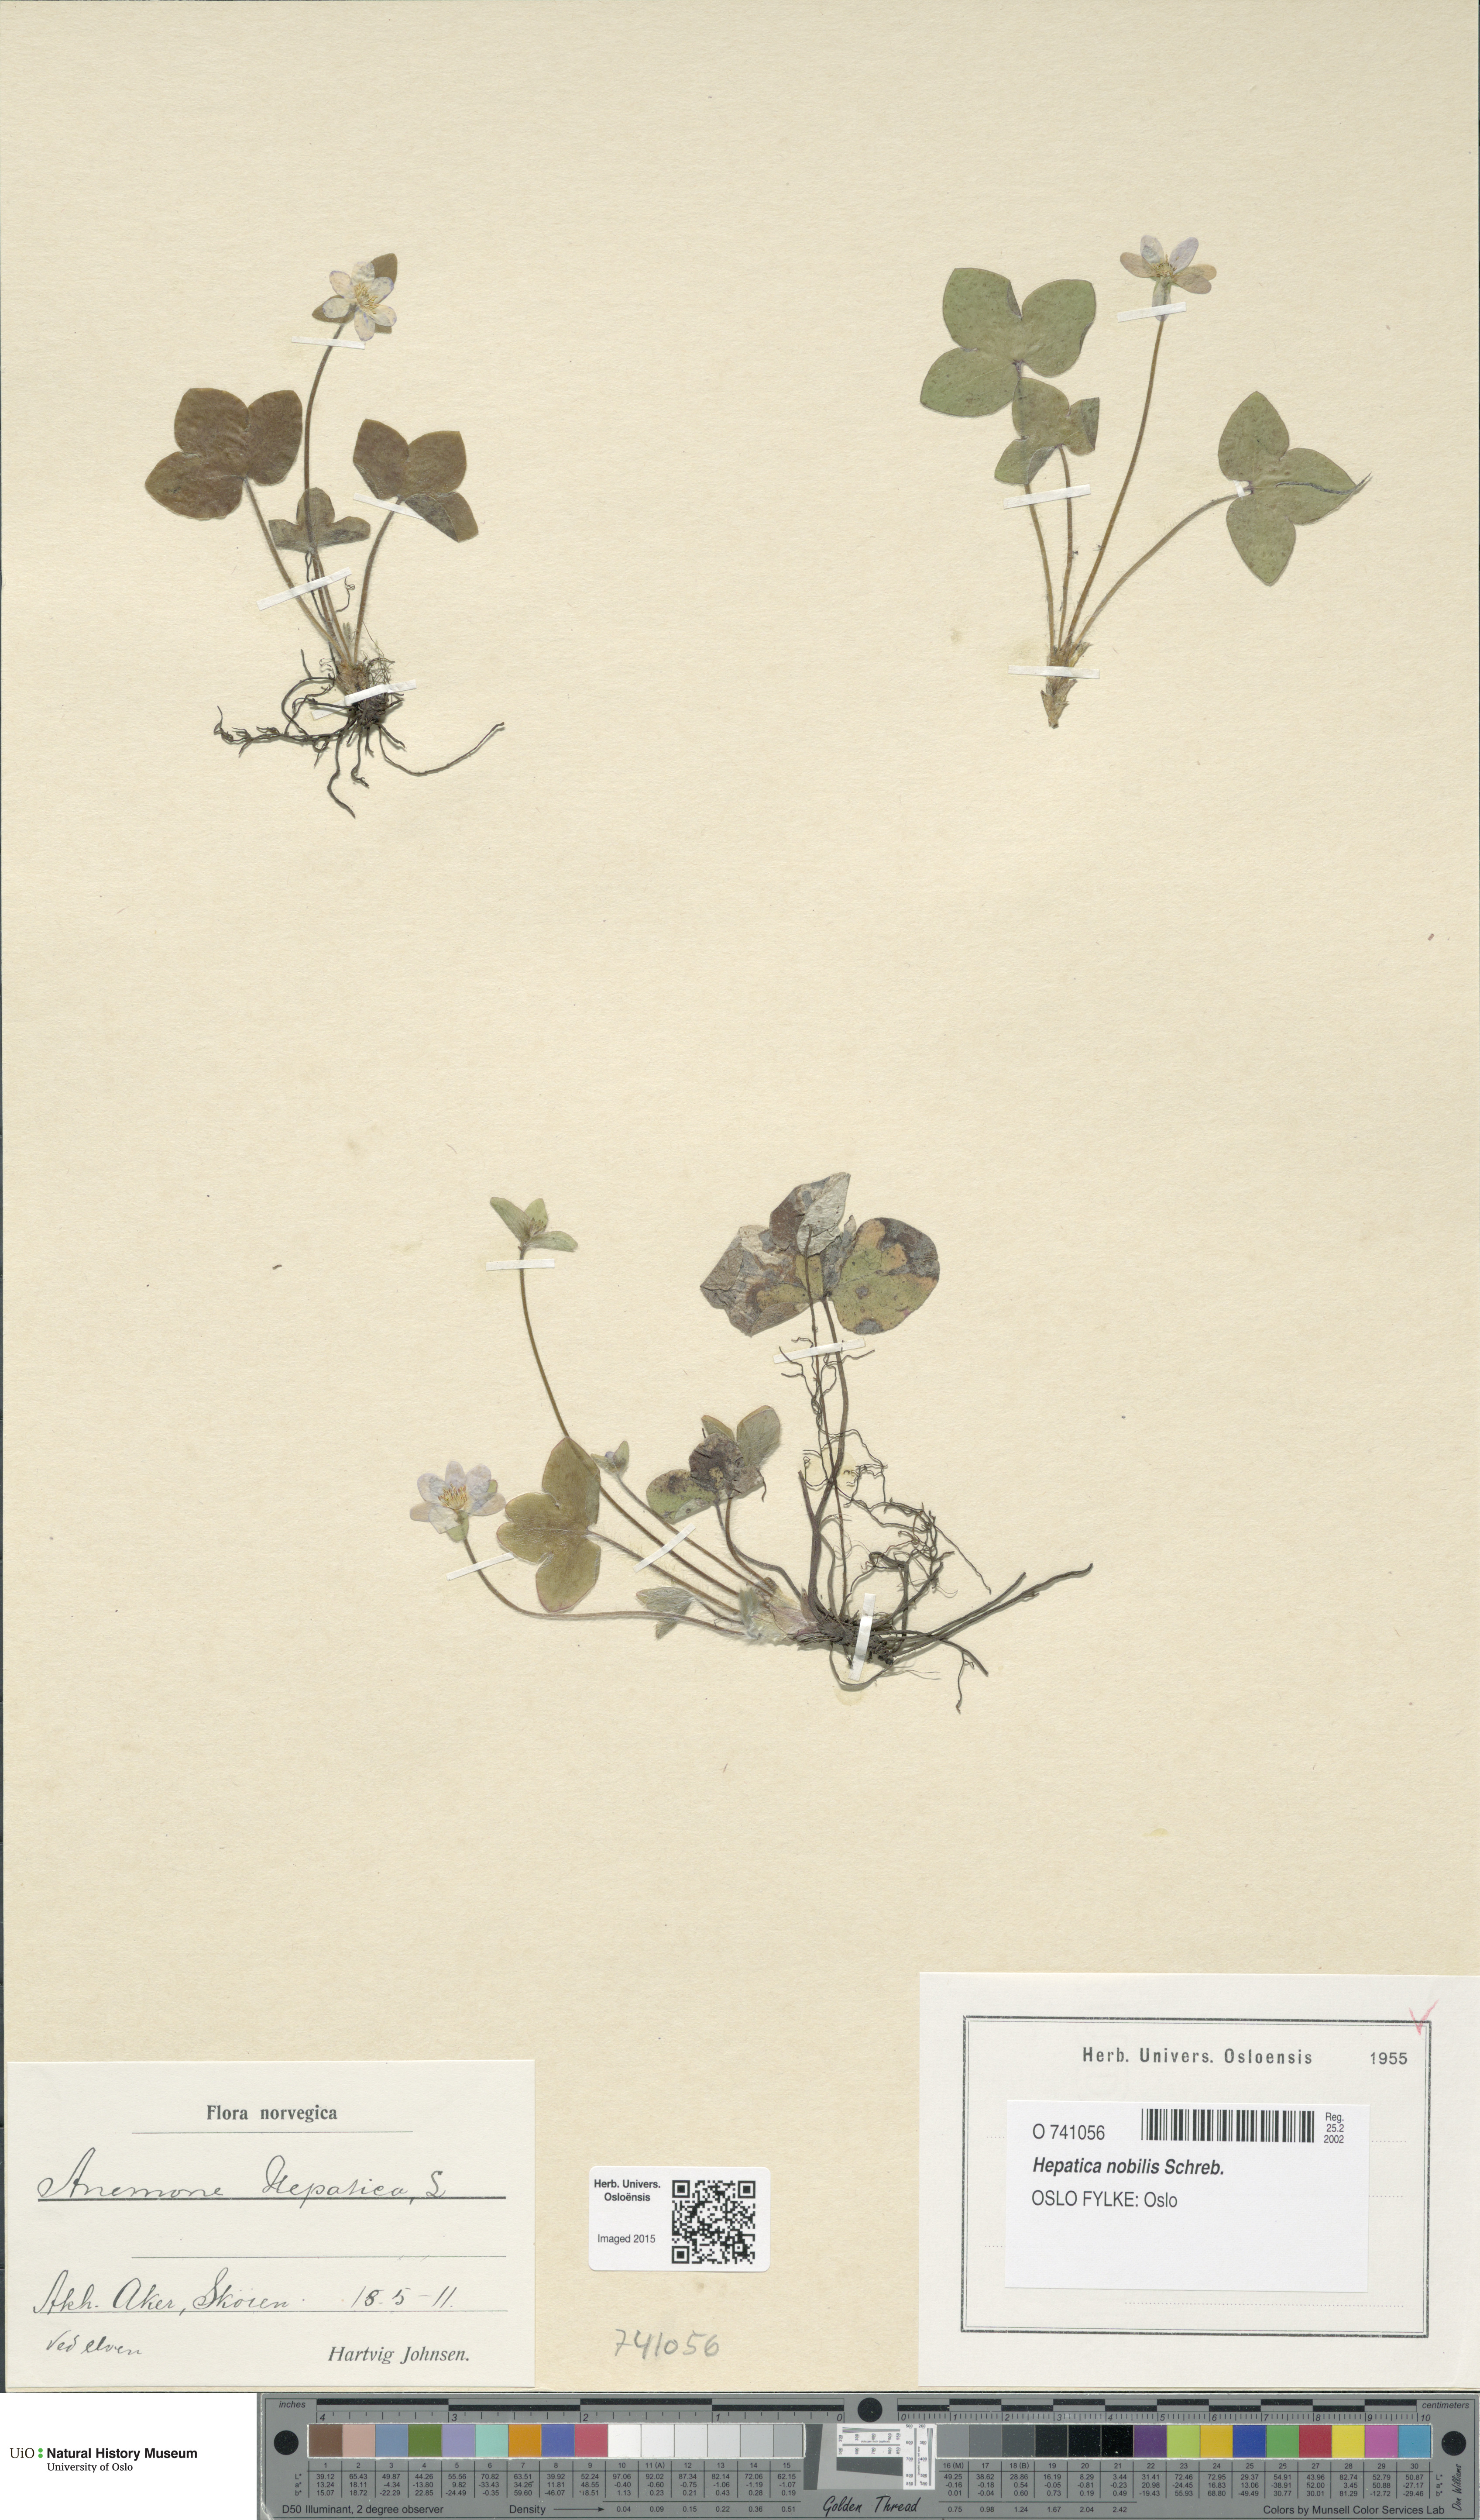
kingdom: Plantae
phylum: Tracheophyta
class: Magnoliopsida
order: Ranunculales
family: Ranunculaceae
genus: Hepatica
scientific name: Hepatica nobilis
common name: Liverleaf
